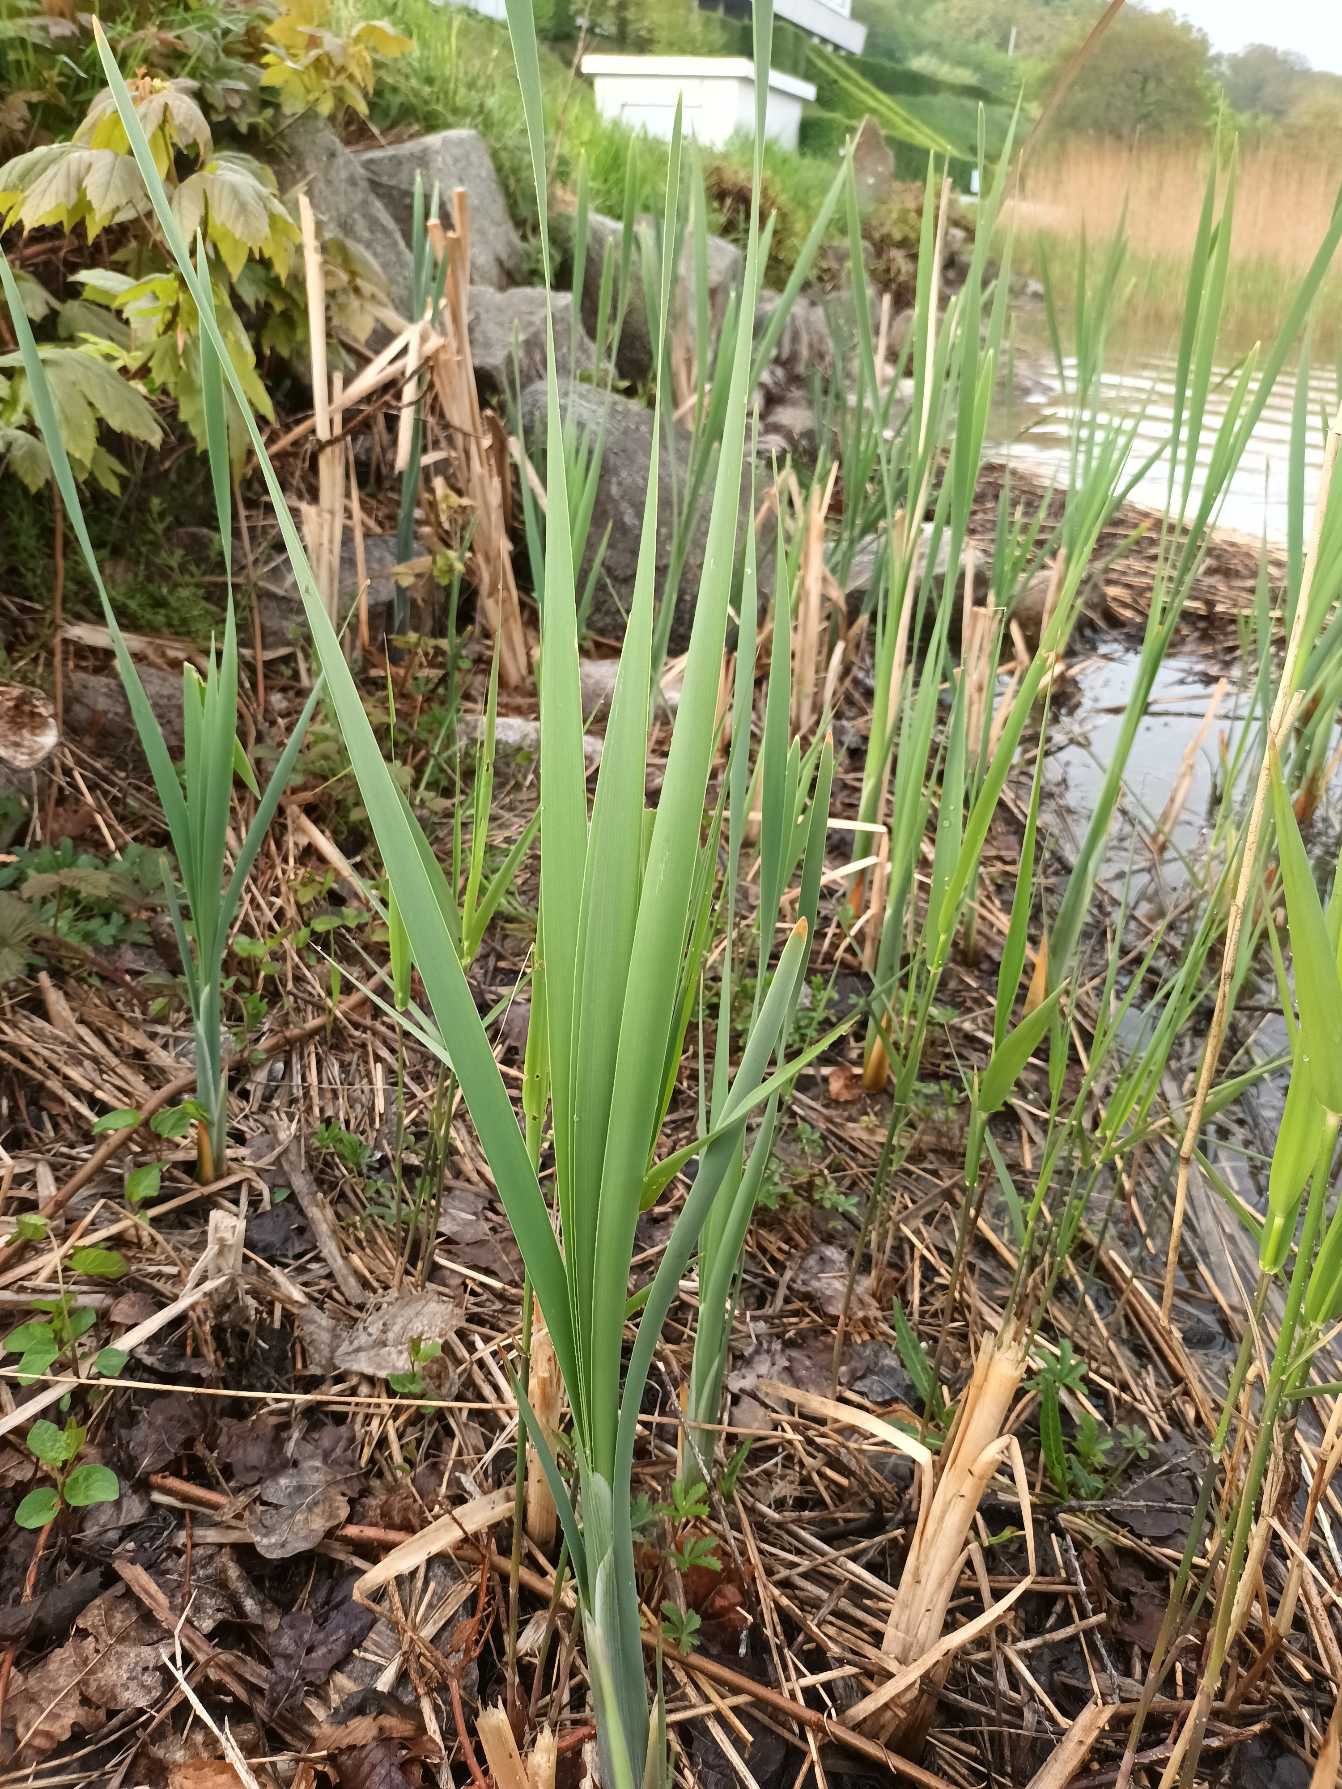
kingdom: Plantae
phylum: Tracheophyta
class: Liliopsida
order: Poales
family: Typhaceae
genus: Typha
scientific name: Typha latifolia
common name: Bredbladet dunhammer
